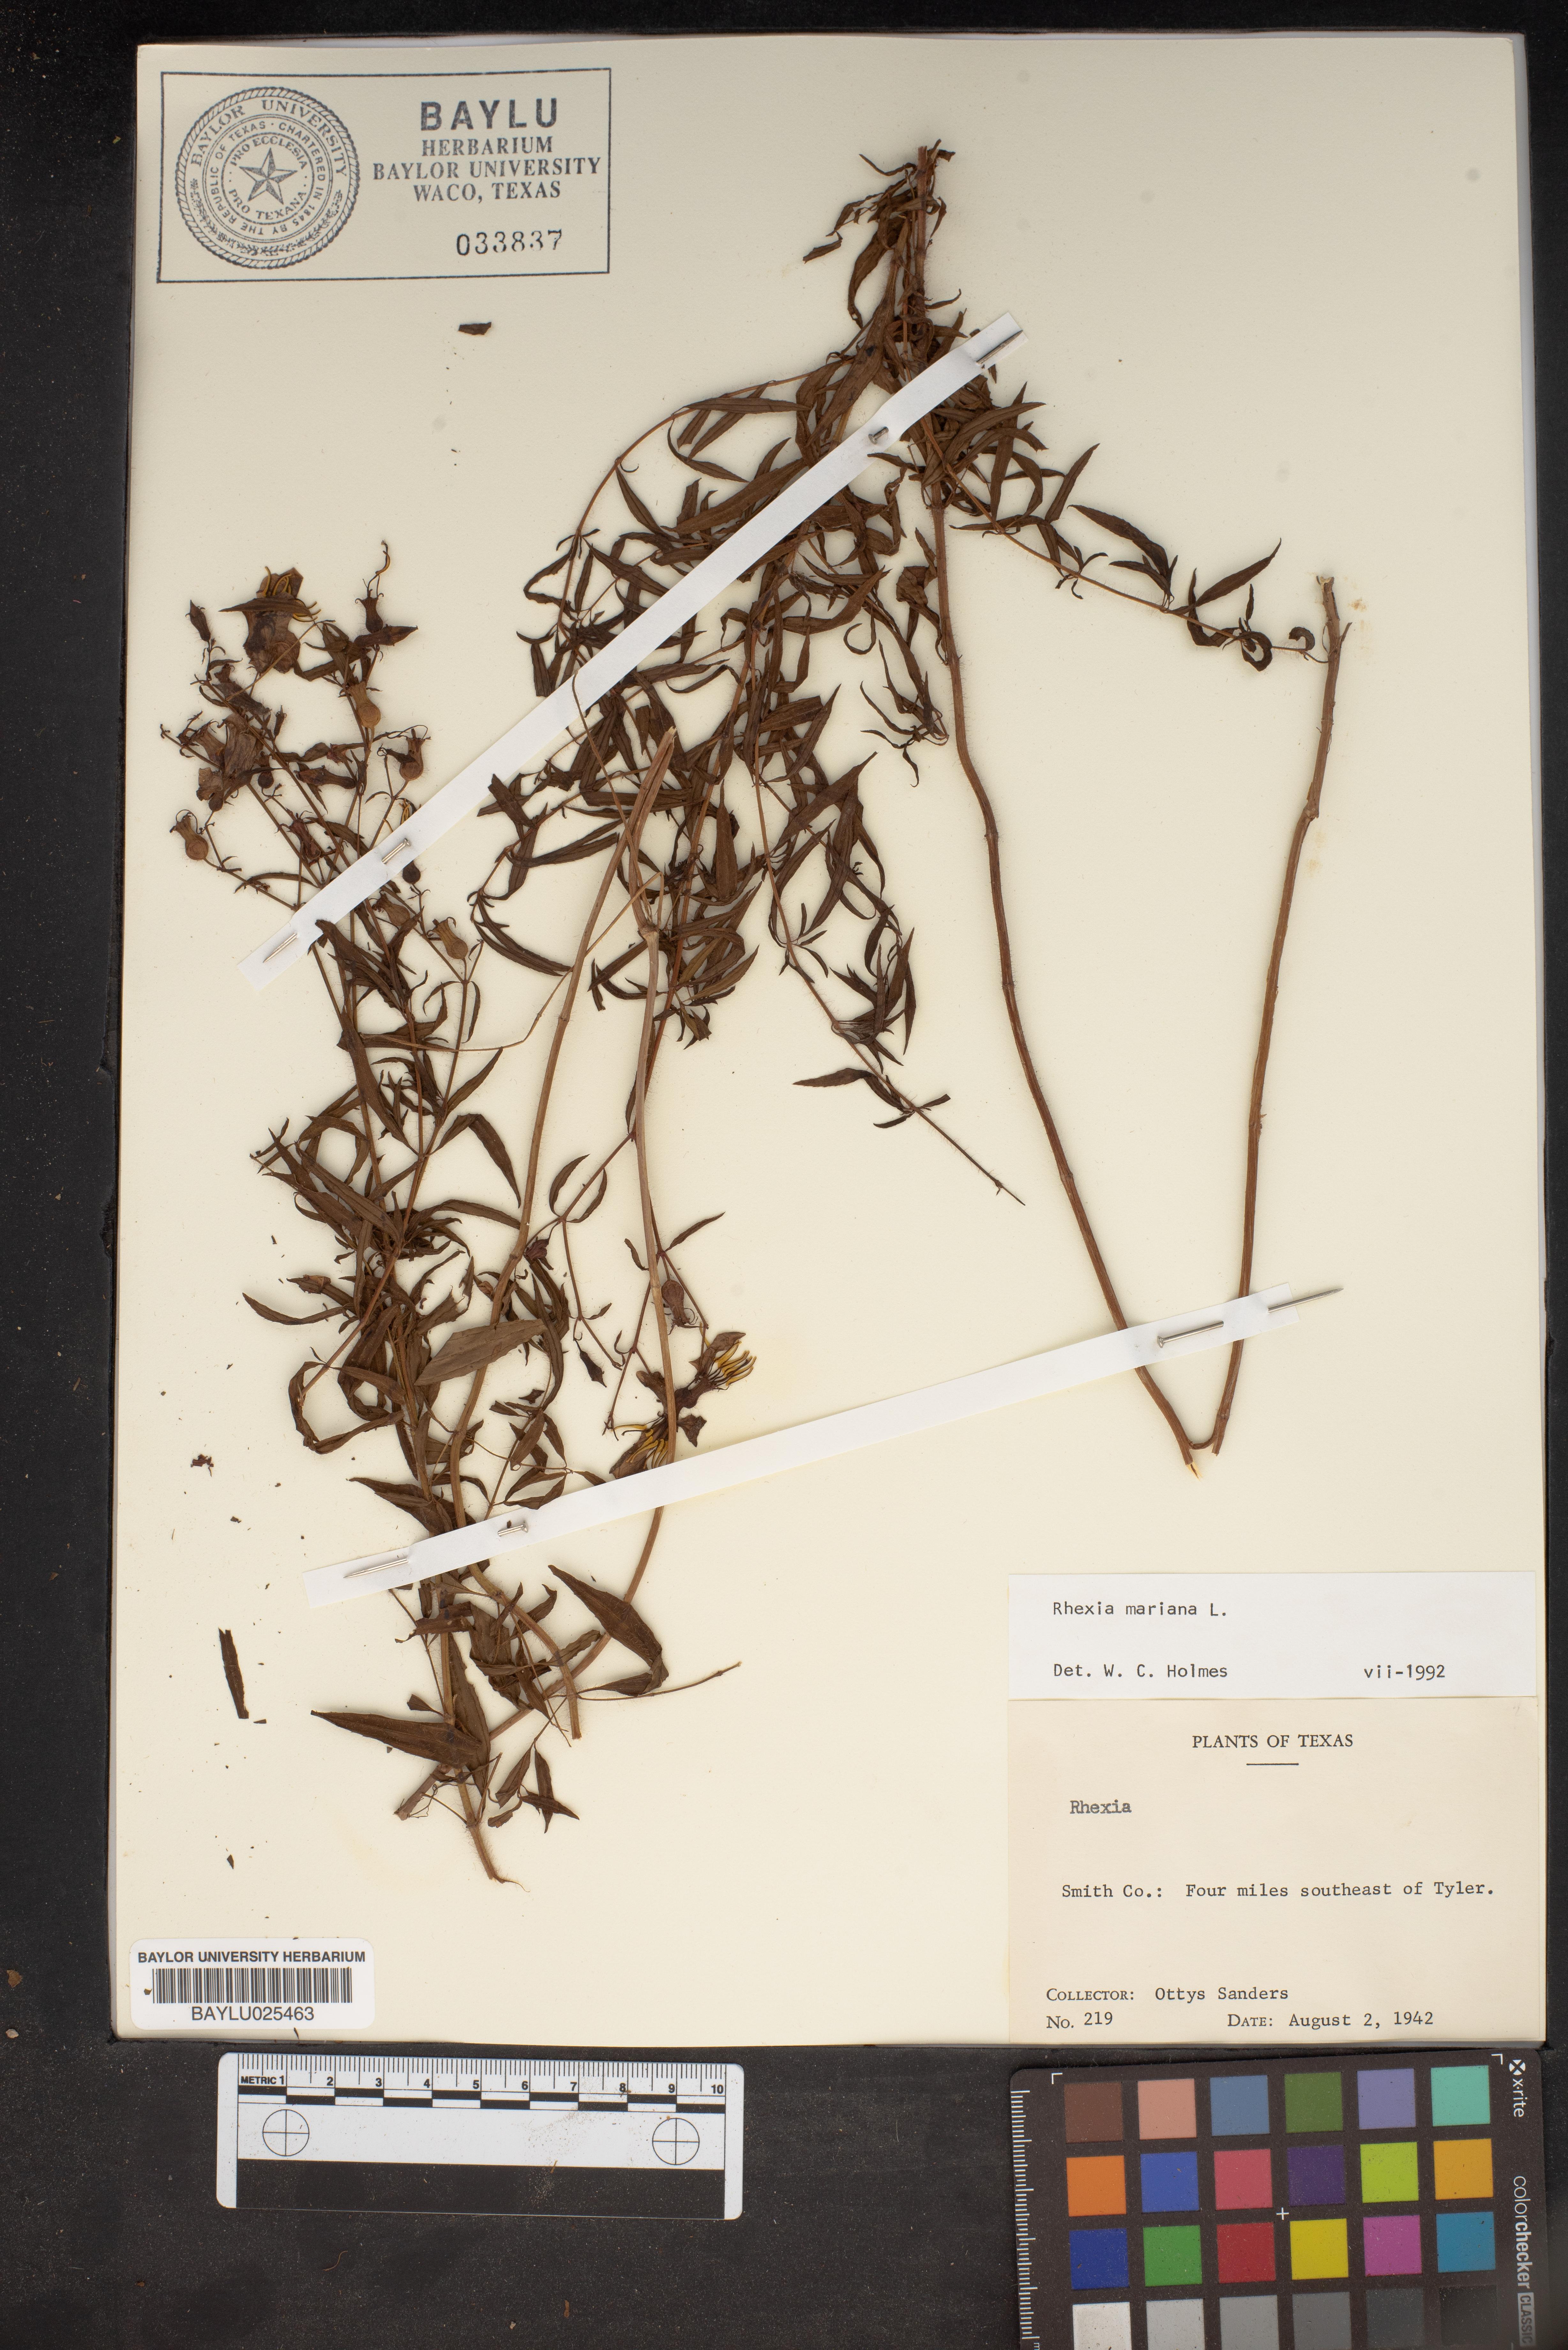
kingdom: Plantae
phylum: Tracheophyta
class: Magnoliopsida
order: Myrtales
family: Melastomataceae
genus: Rhexia
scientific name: Rhexia mariana
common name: Dull meadow-pitcher
